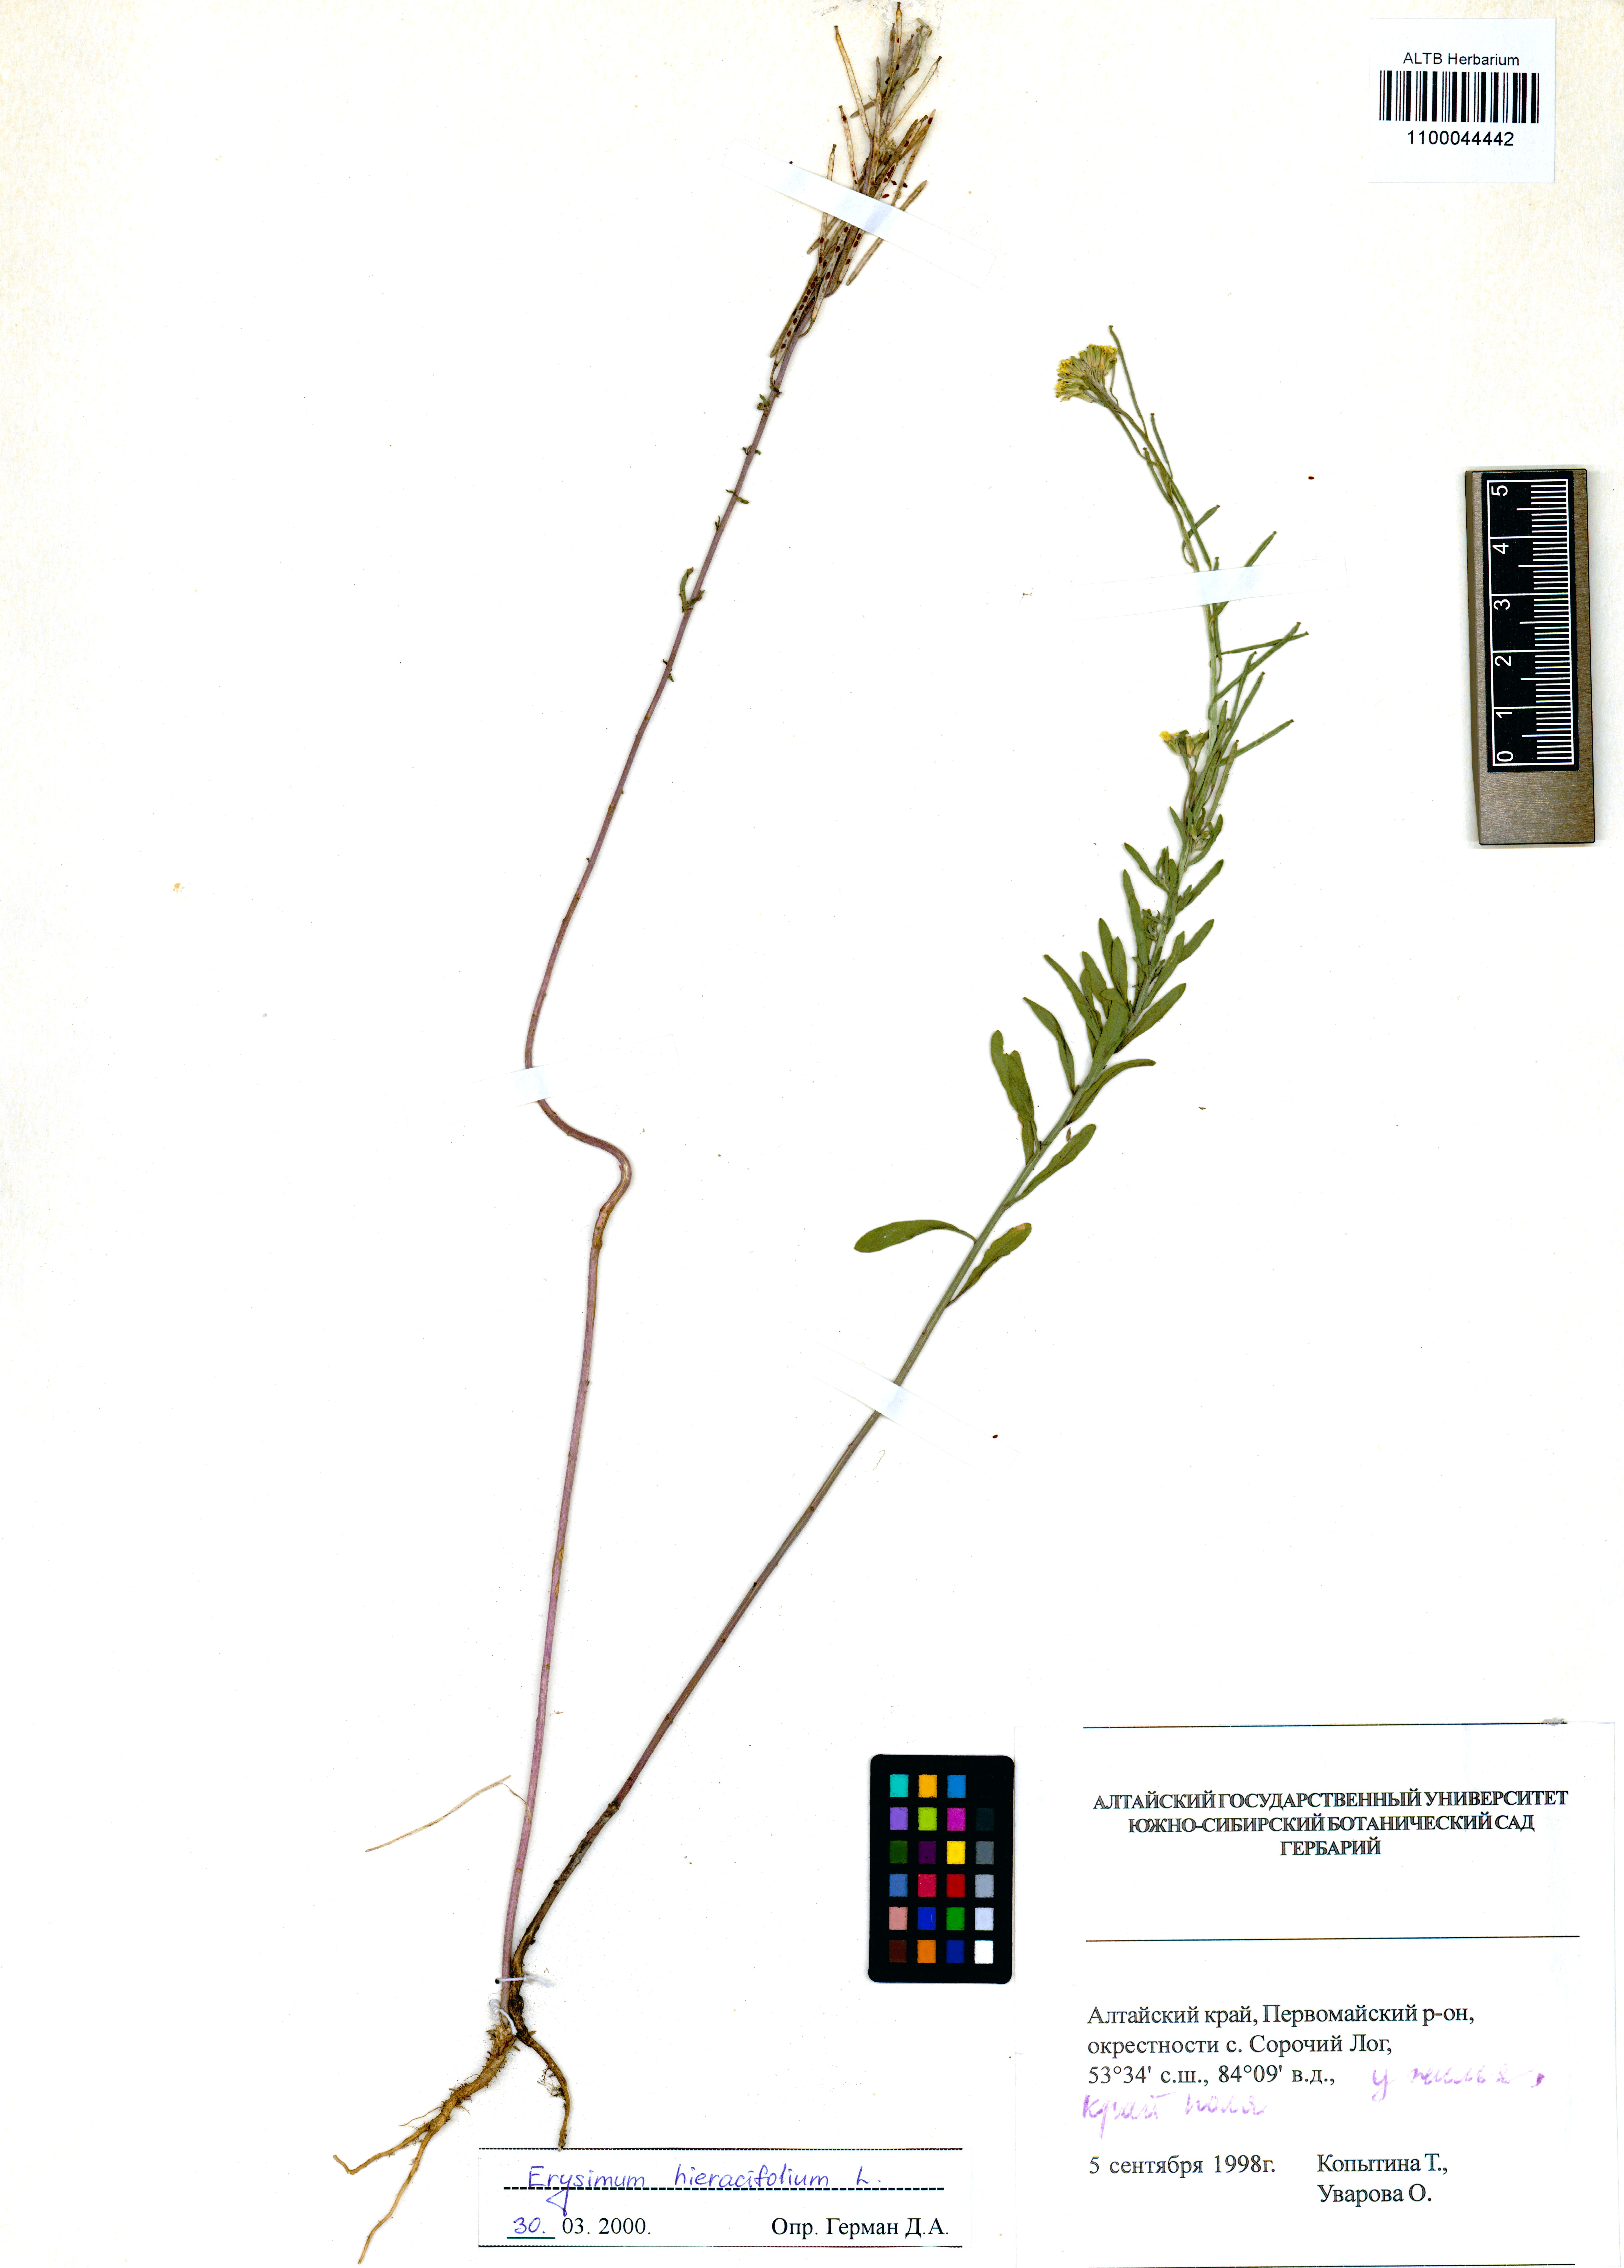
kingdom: Plantae
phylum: Tracheophyta
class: Magnoliopsida
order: Brassicales
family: Brassicaceae
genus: Erysimum
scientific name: Erysimum hieraciifolium
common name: European wallflower
